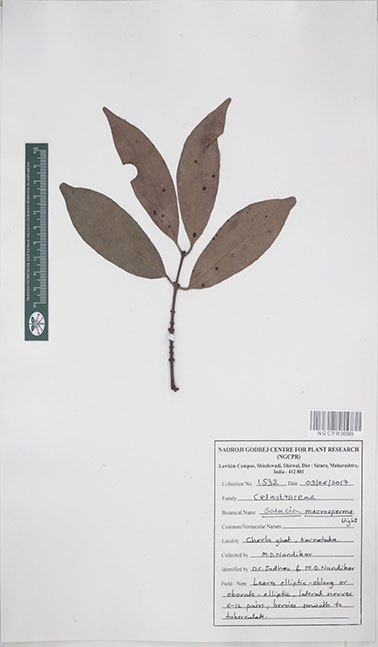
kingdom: Plantae
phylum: Tracheophyta
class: Magnoliopsida
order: Celastrales
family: Celastraceae
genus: Salacia
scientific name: Salacia macrosperma
